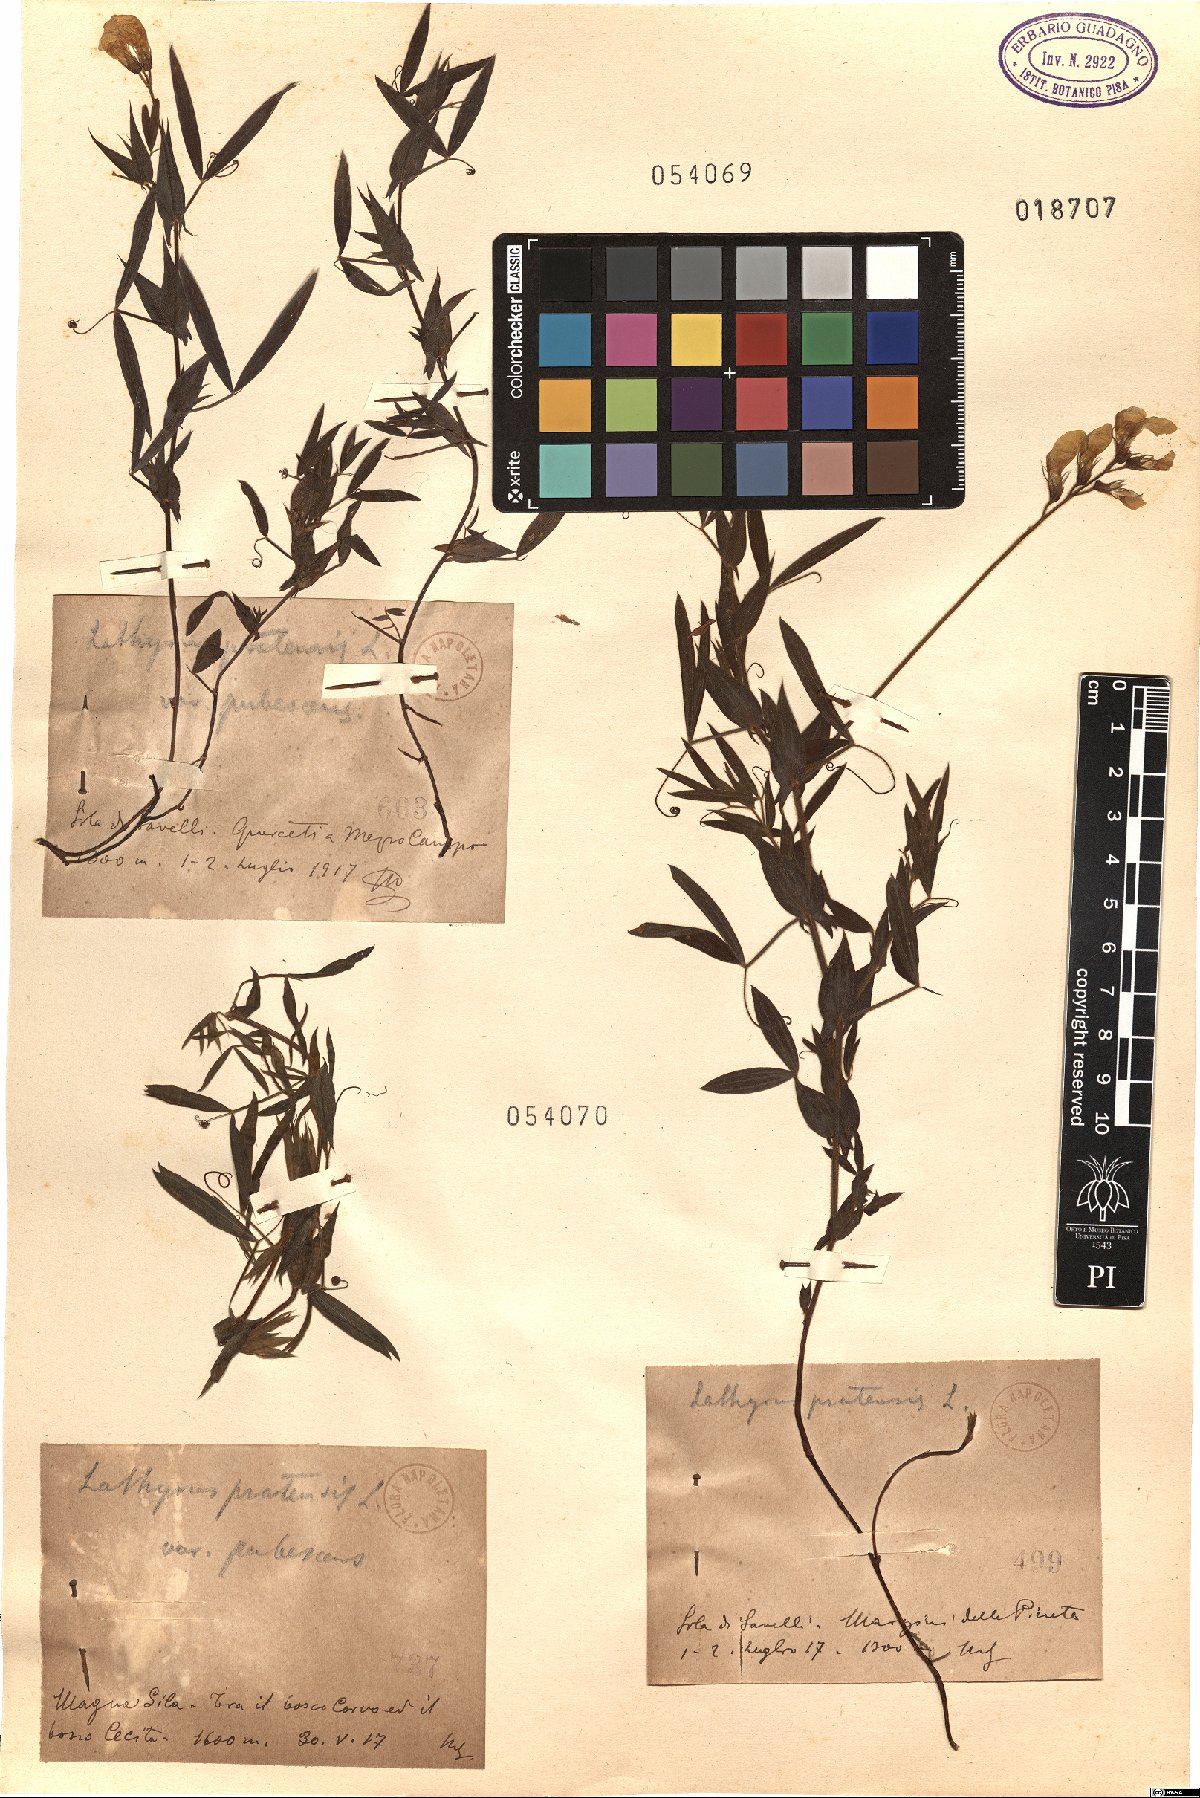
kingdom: Plantae
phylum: Tracheophyta
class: Magnoliopsida
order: Fabales
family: Fabaceae
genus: Lathyrus
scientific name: Lathyrus pratensis
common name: Meadow vetchling
